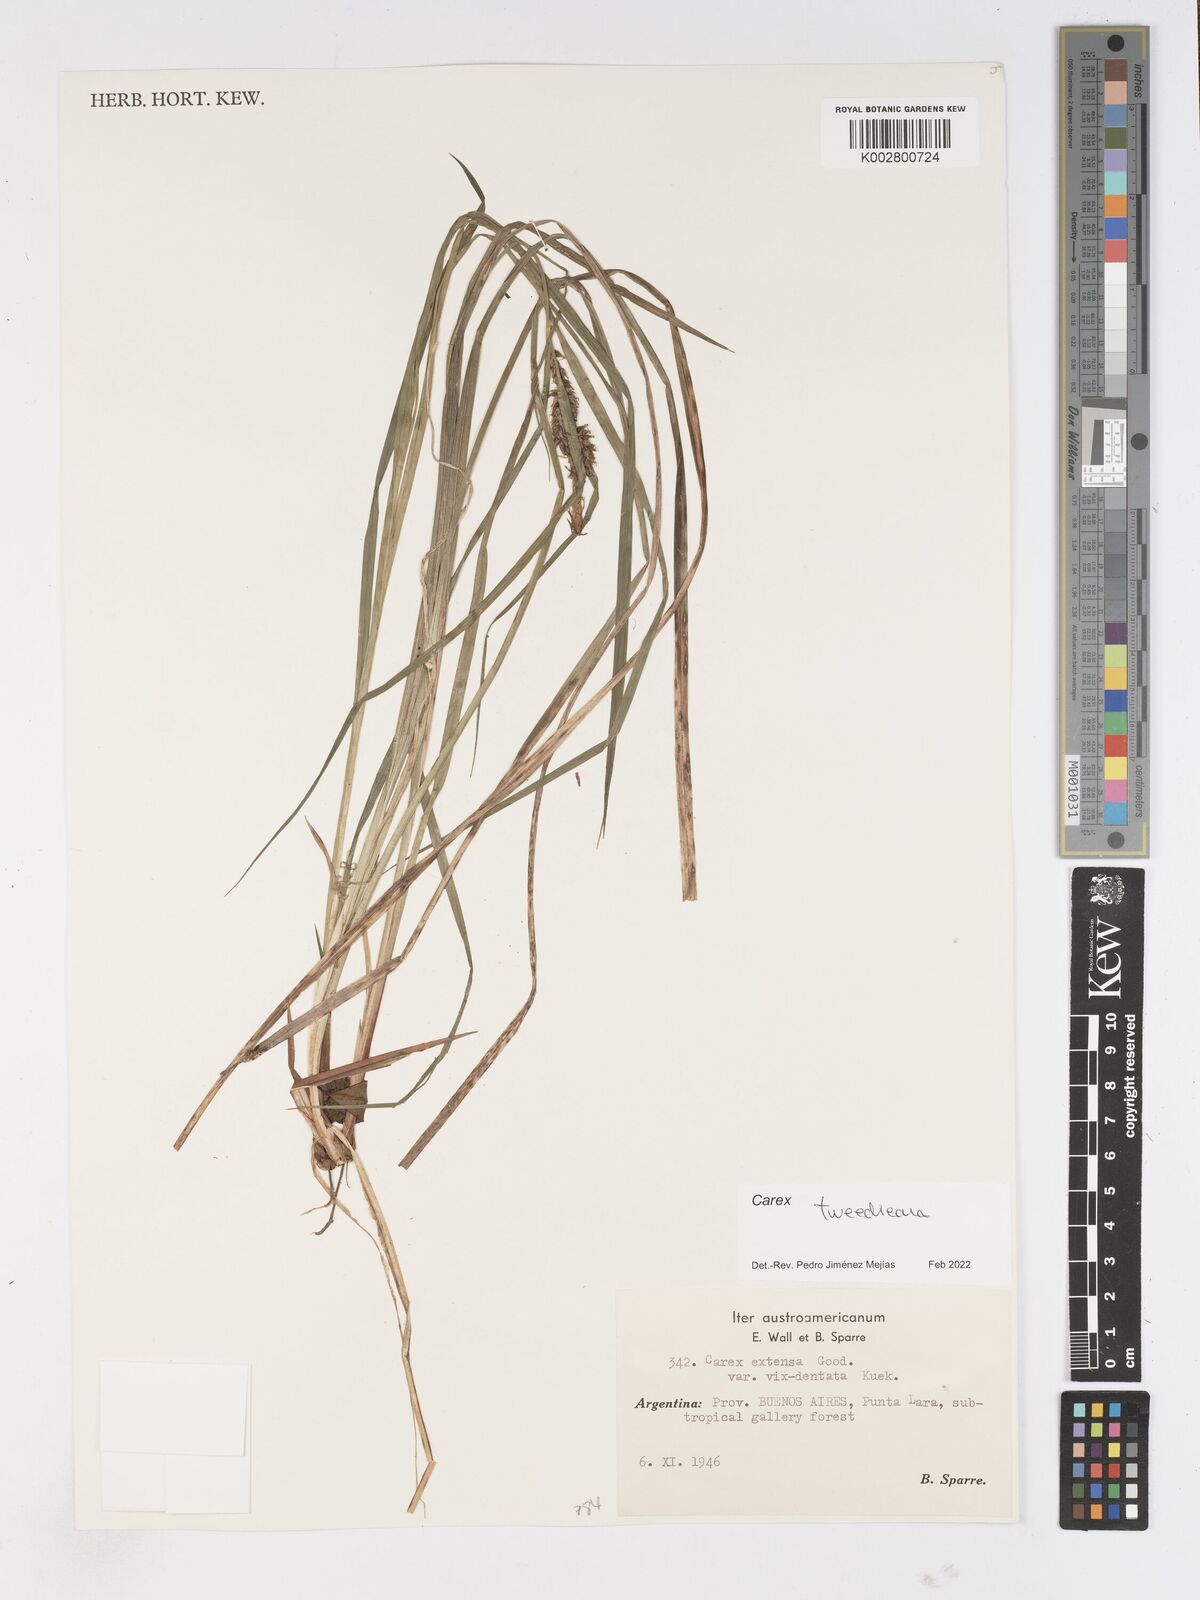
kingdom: Plantae
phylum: Tracheophyta
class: Liliopsida
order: Poales
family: Cyperaceae
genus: Carex
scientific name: Carex tweedieana
